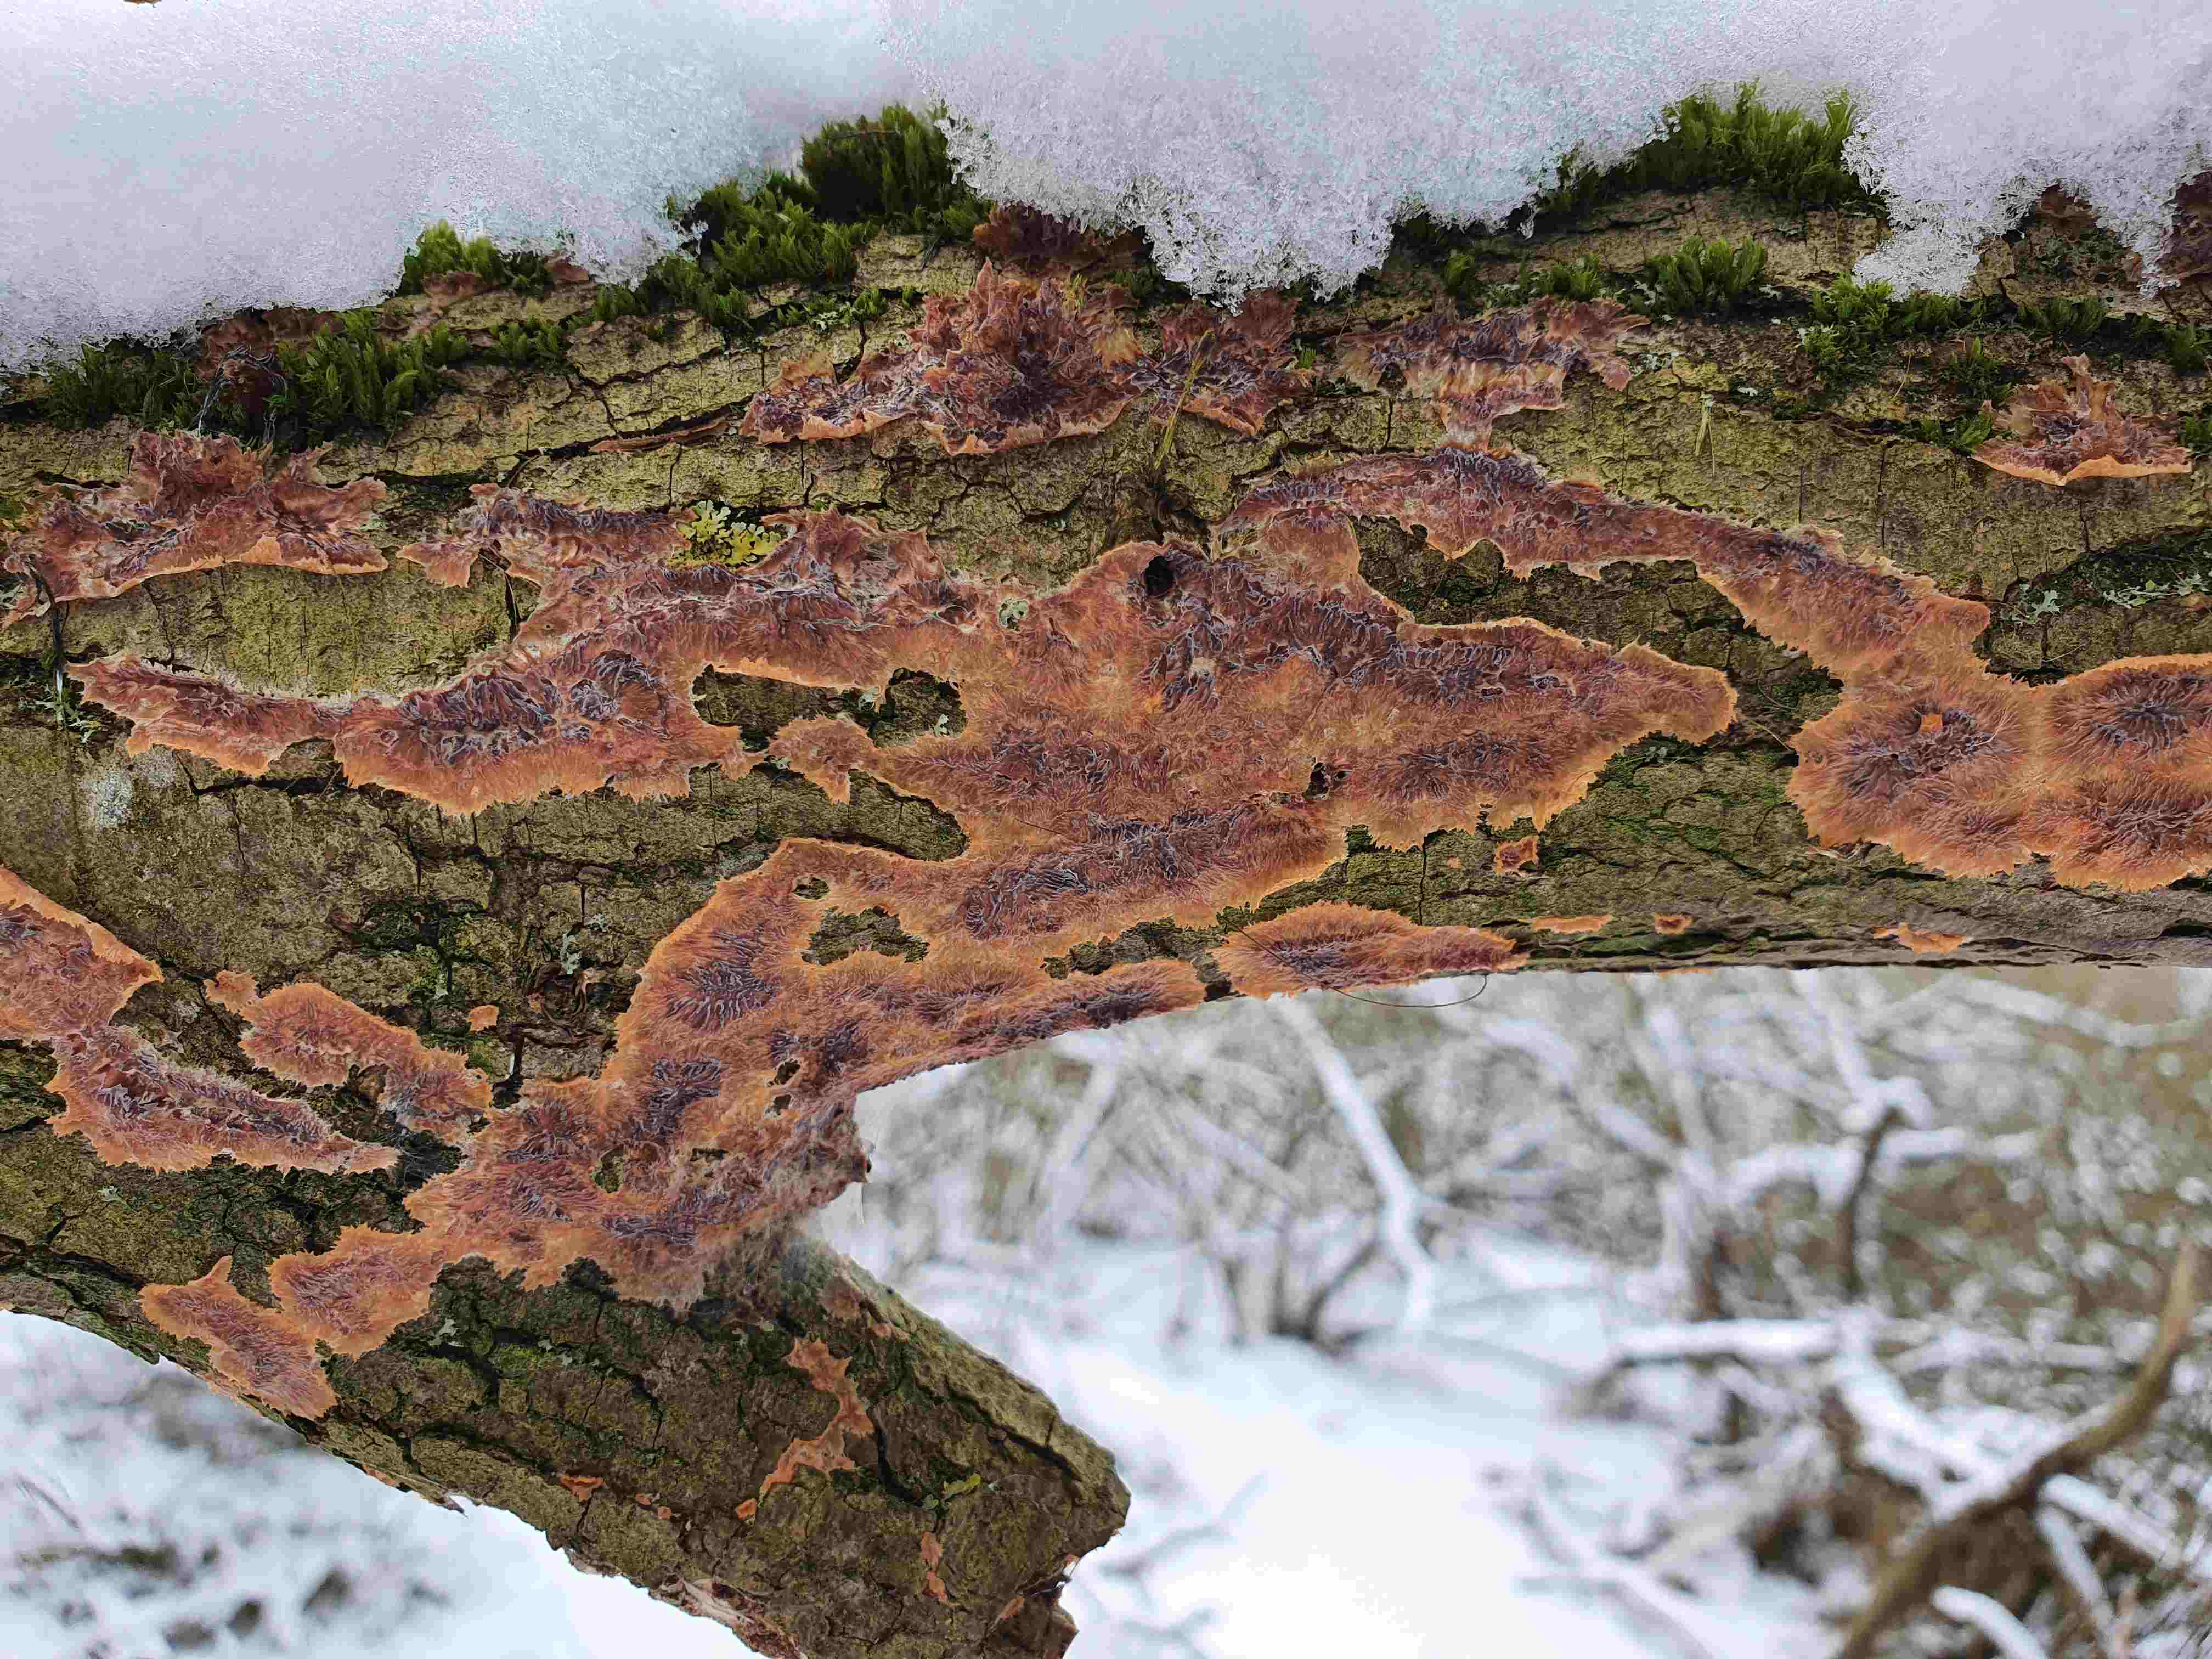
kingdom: Fungi
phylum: Basidiomycota
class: Agaricomycetes
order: Polyporales
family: Meruliaceae
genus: Phlebia
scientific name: Phlebia radiata
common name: stråle-åresvamp
